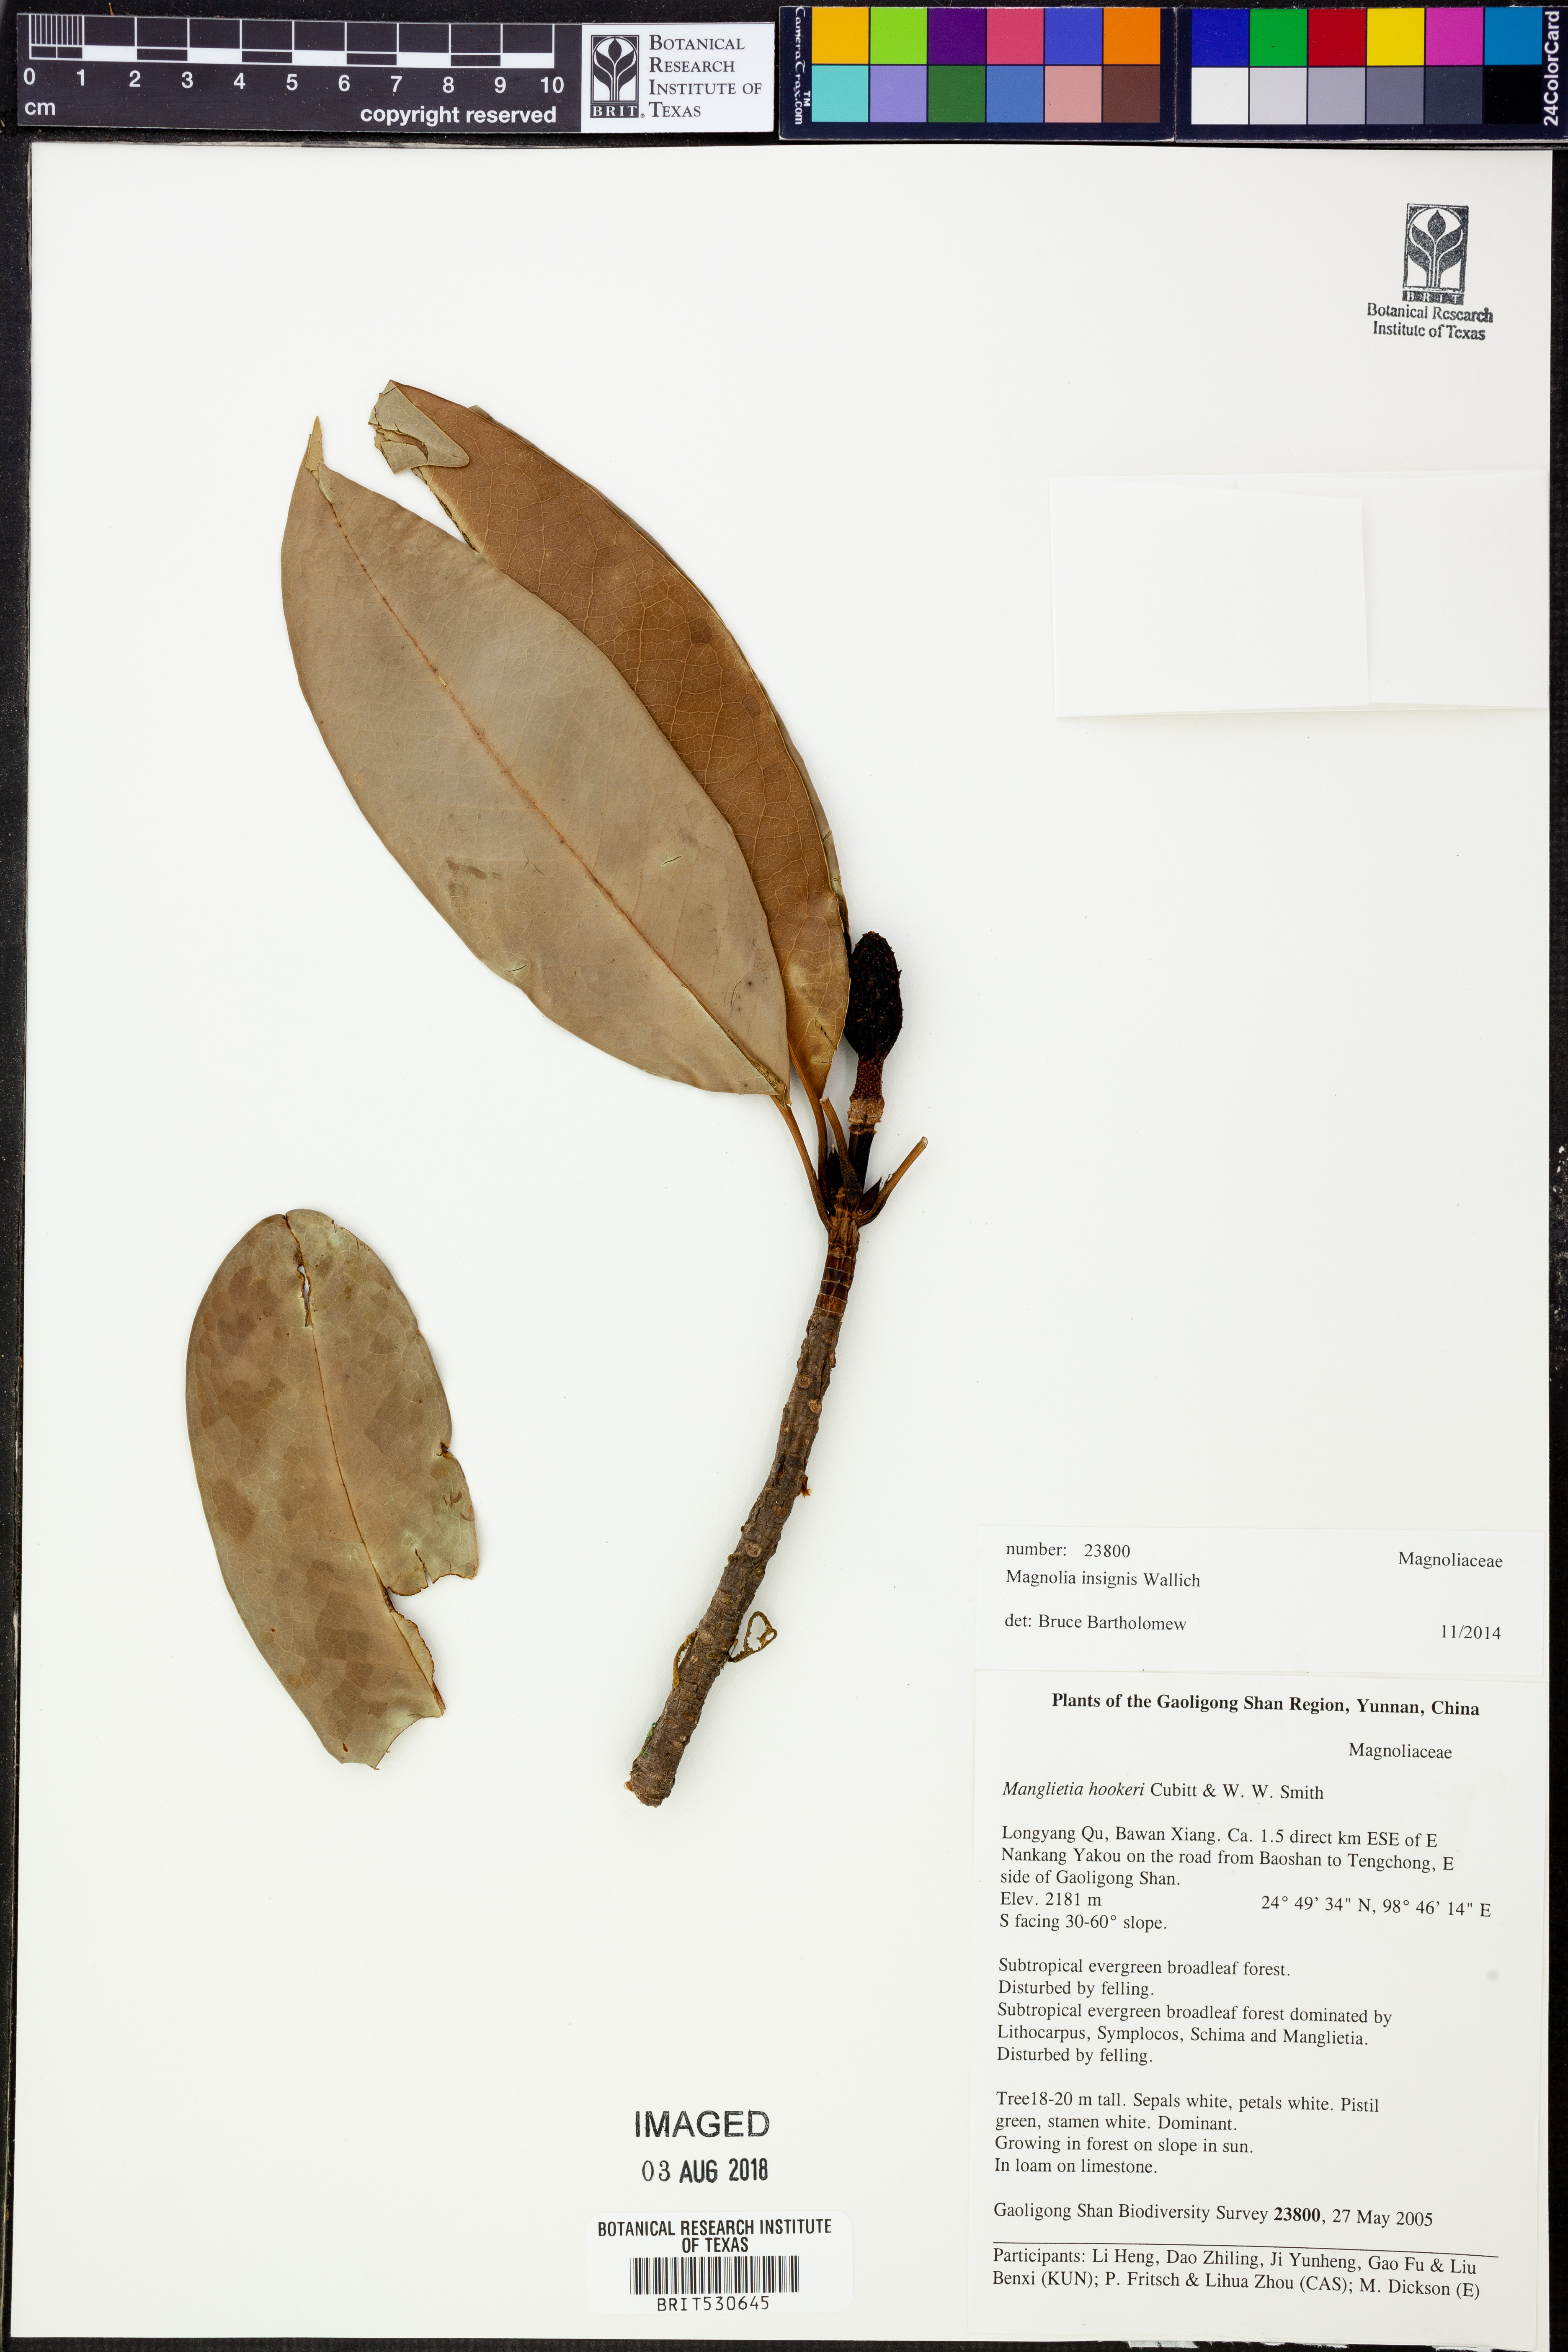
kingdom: Plantae
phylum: Tracheophyta
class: Magnoliopsida
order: Magnoliales
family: Magnoliaceae
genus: Magnolia
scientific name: Magnolia insignis
